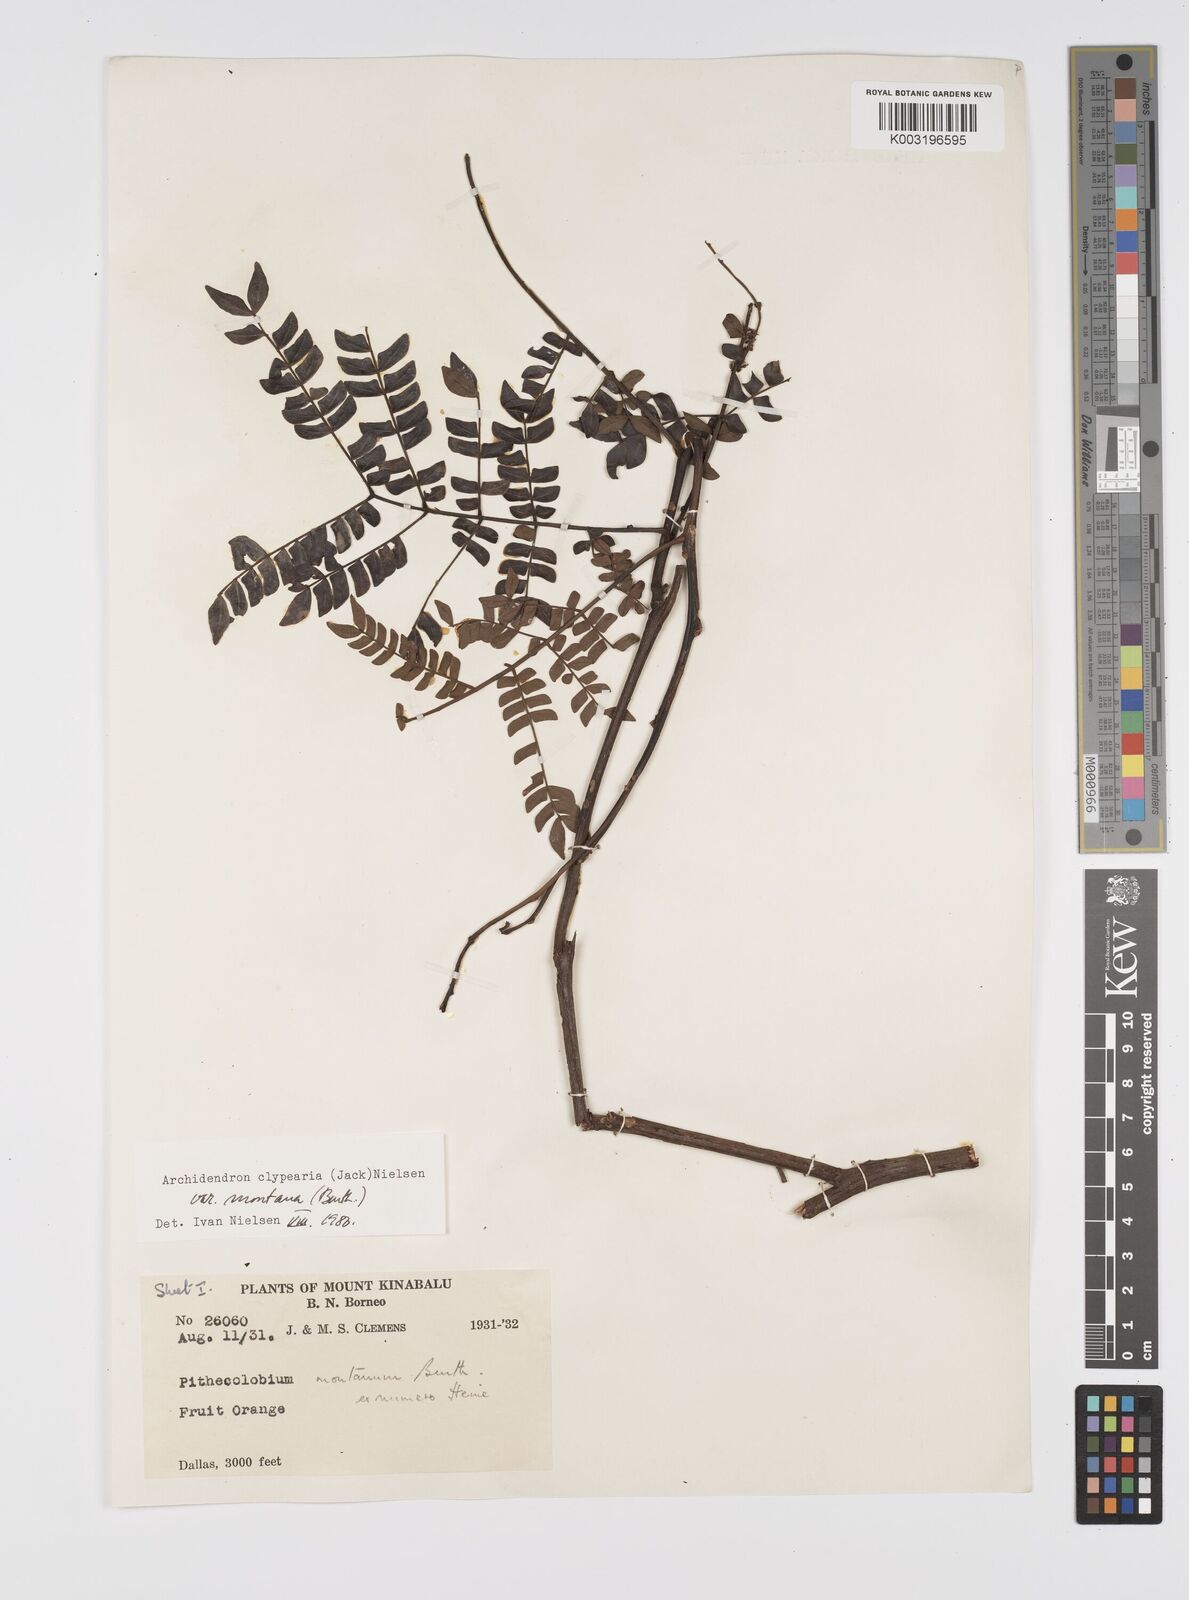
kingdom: Plantae
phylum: Tracheophyta
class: Magnoliopsida
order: Fabales
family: Fabaceae
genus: Archidendron
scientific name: Archidendron clypearia
